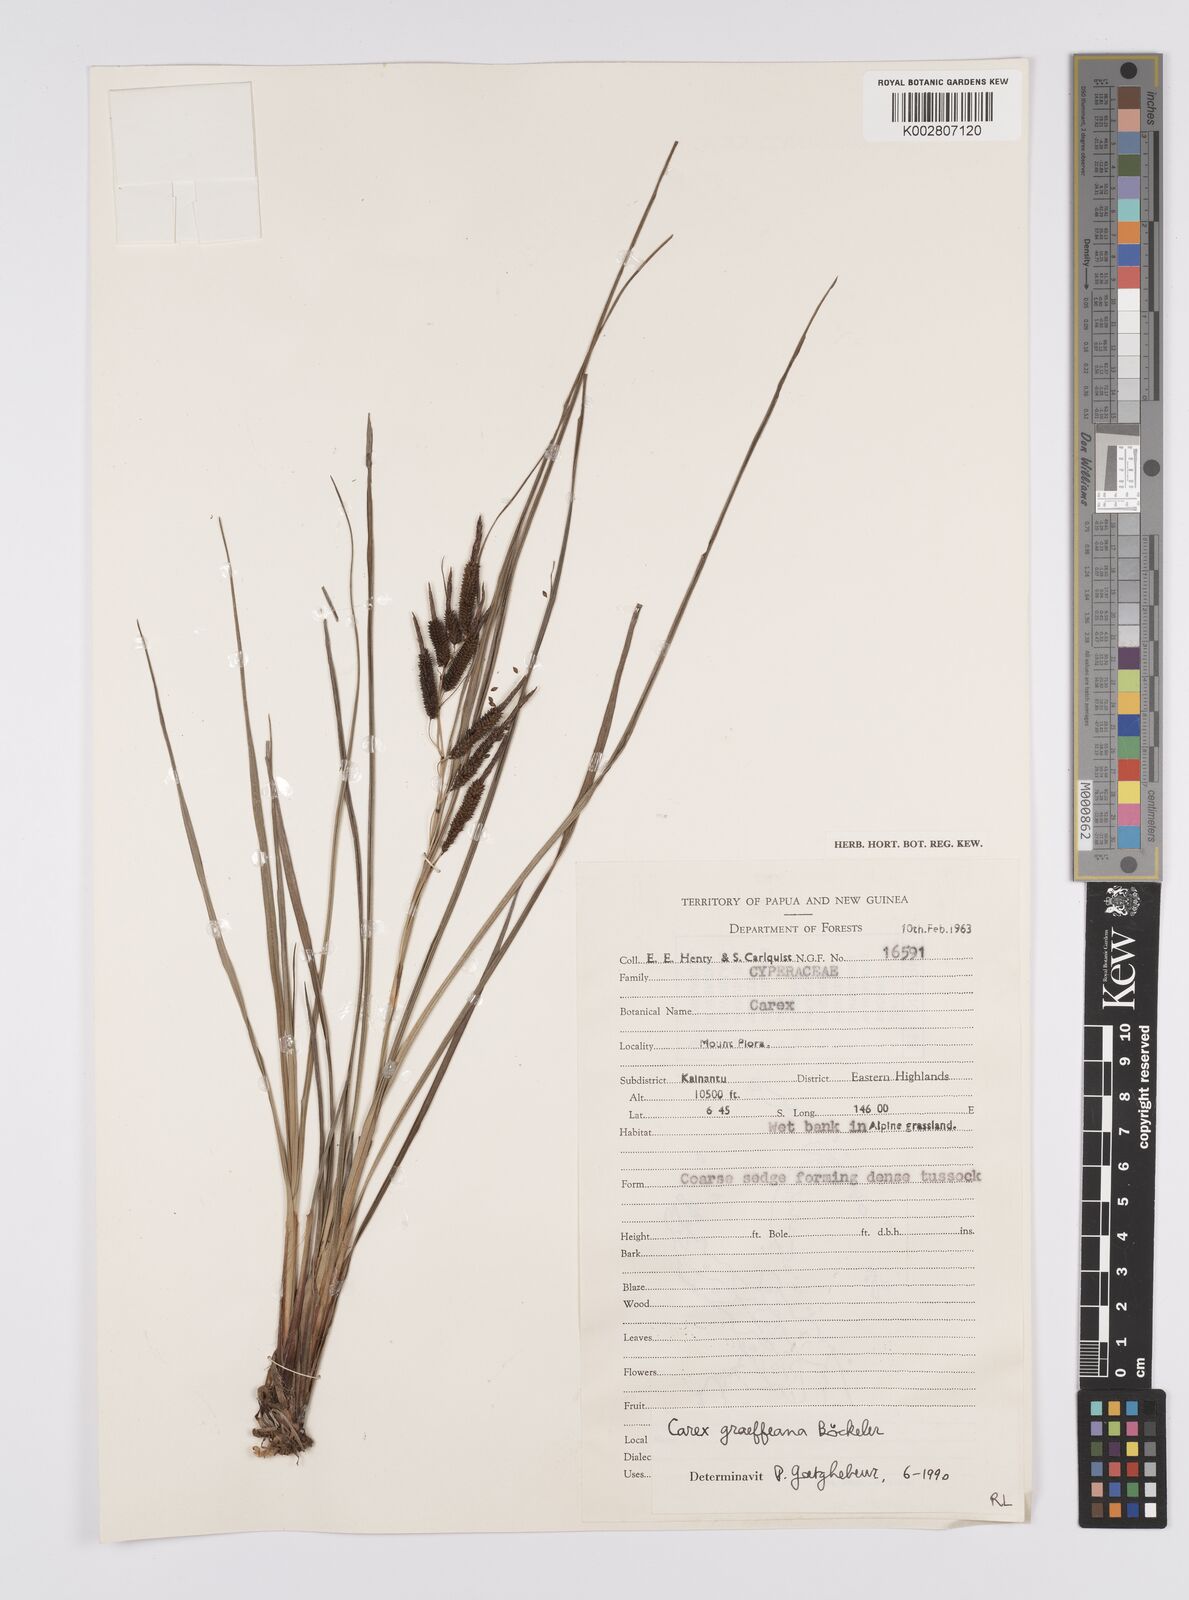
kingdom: Plantae
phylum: Tracheophyta
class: Liliopsida
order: Poales
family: Cyperaceae
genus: Carex
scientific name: Carex graeffeana
